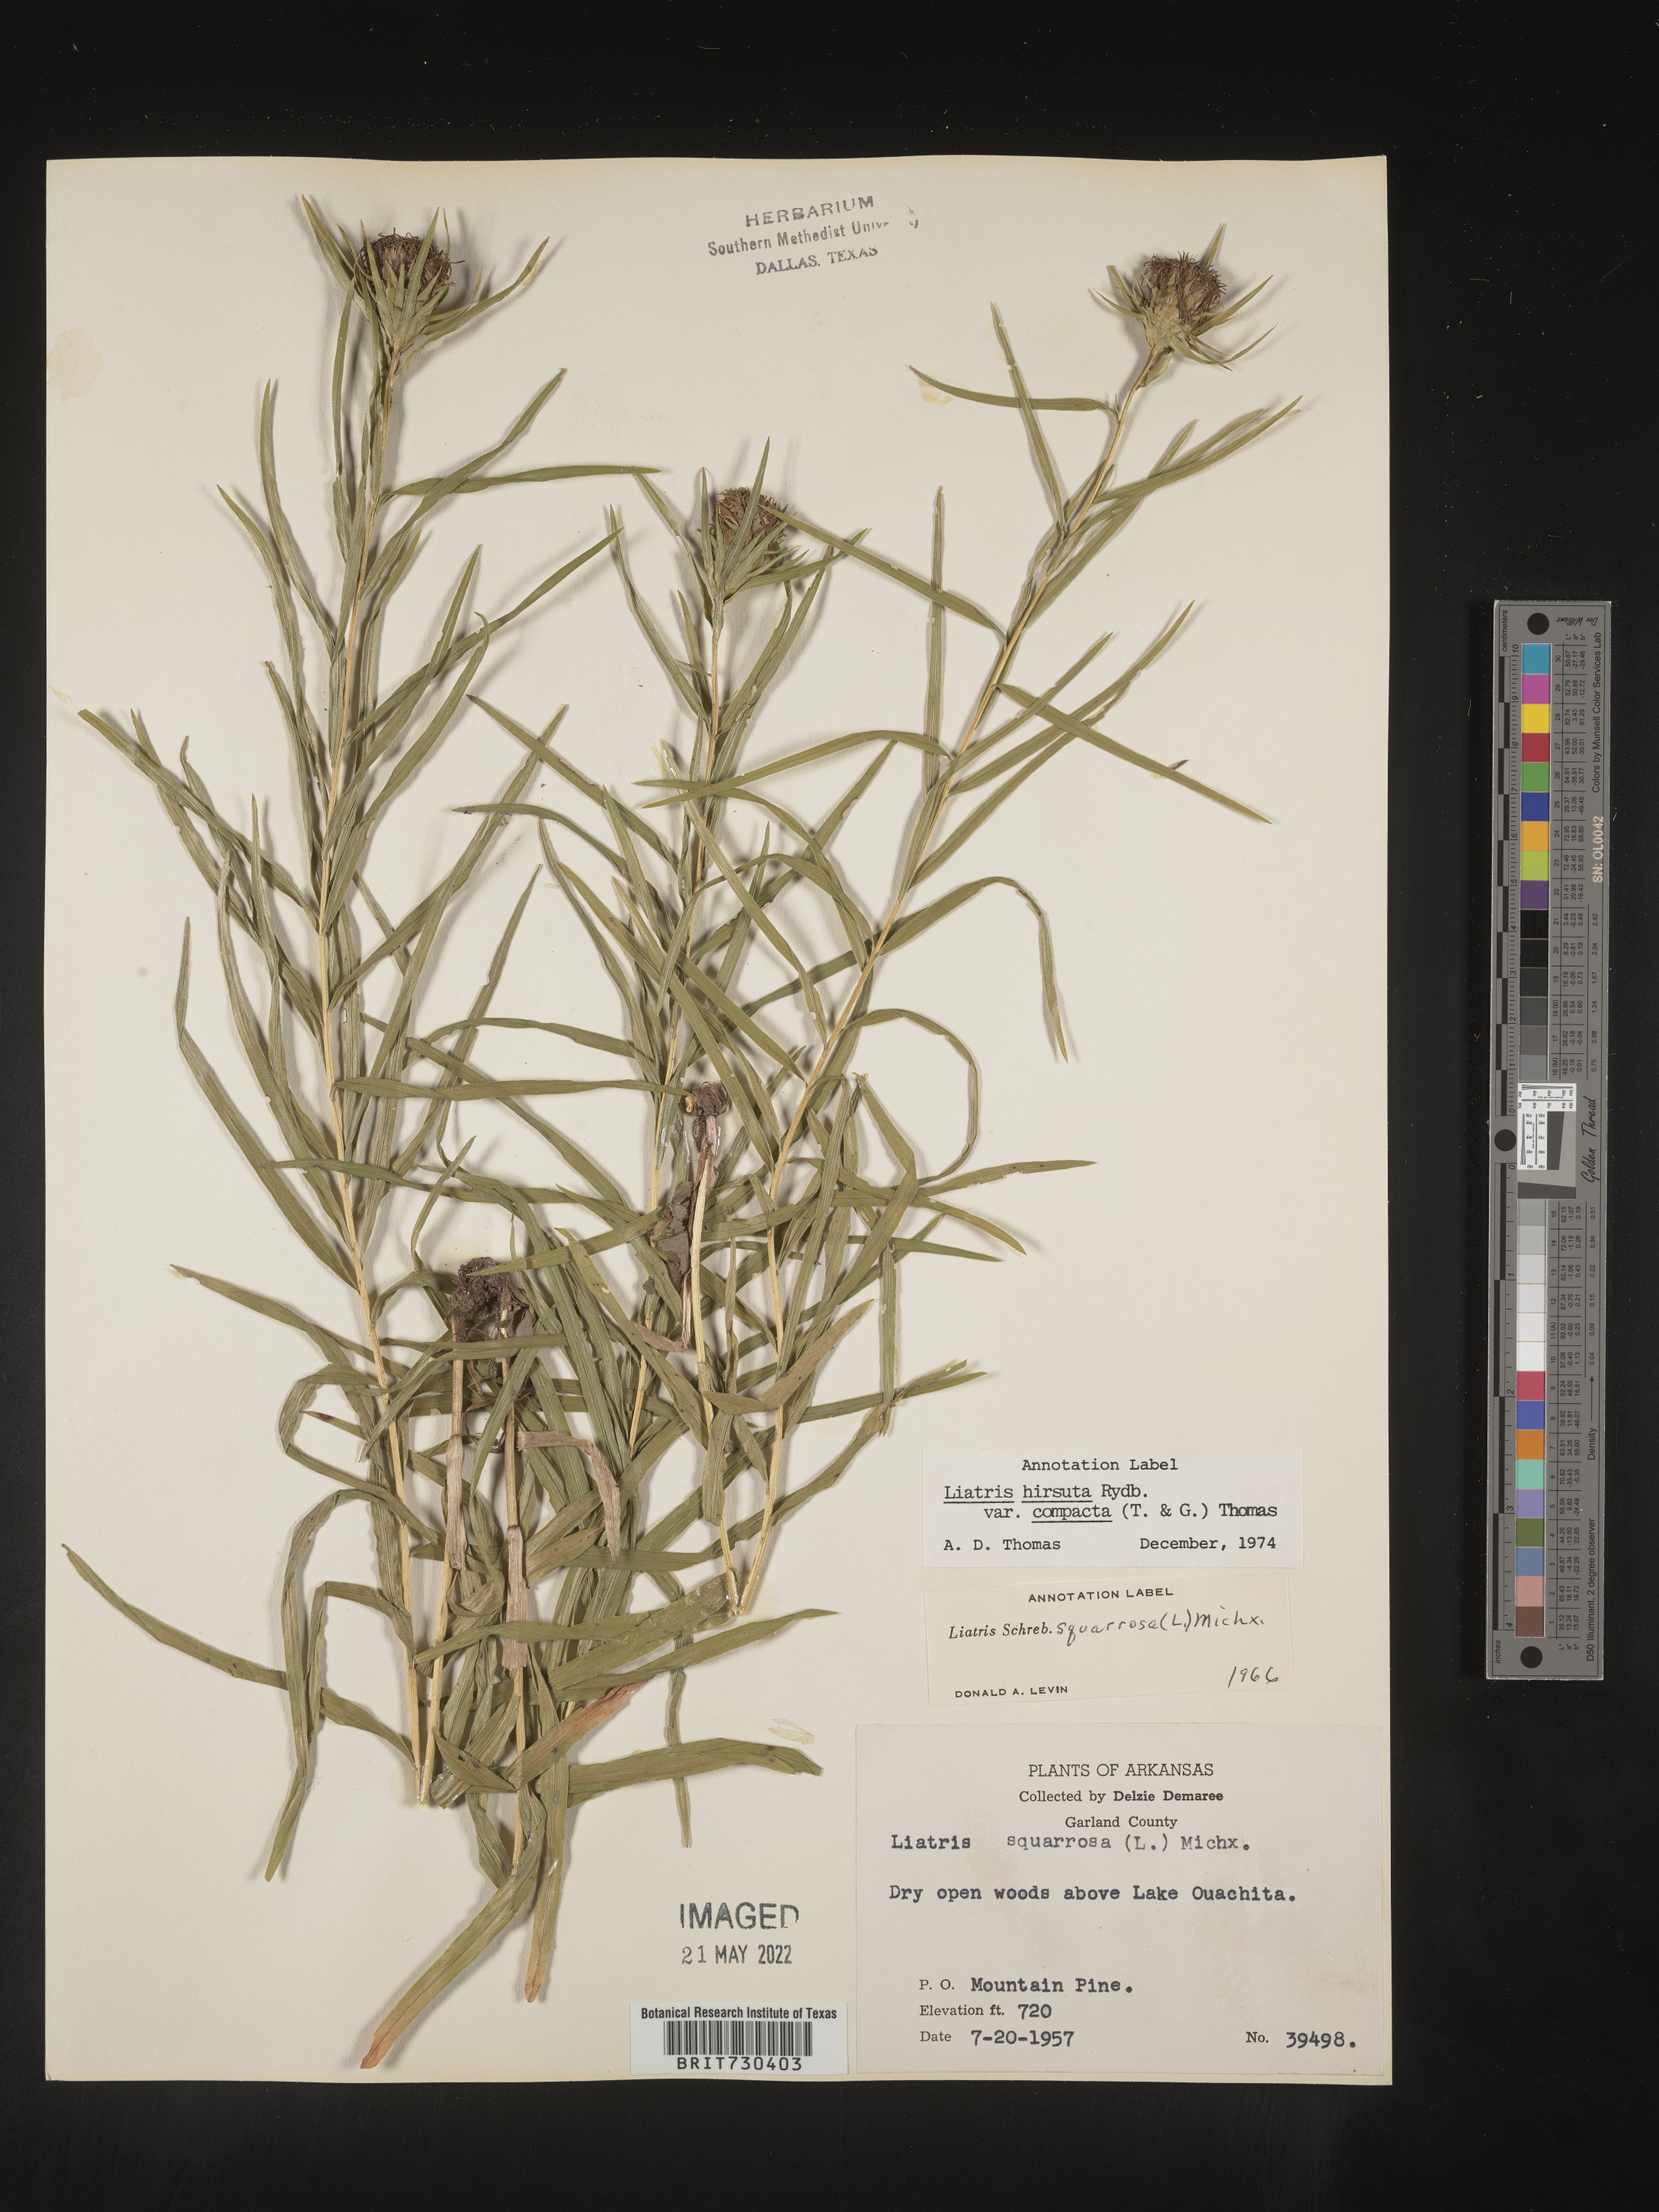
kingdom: Plantae
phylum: Tracheophyta
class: Magnoliopsida
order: Asterales
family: Asteraceae
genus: Liatris
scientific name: Liatris compacta
